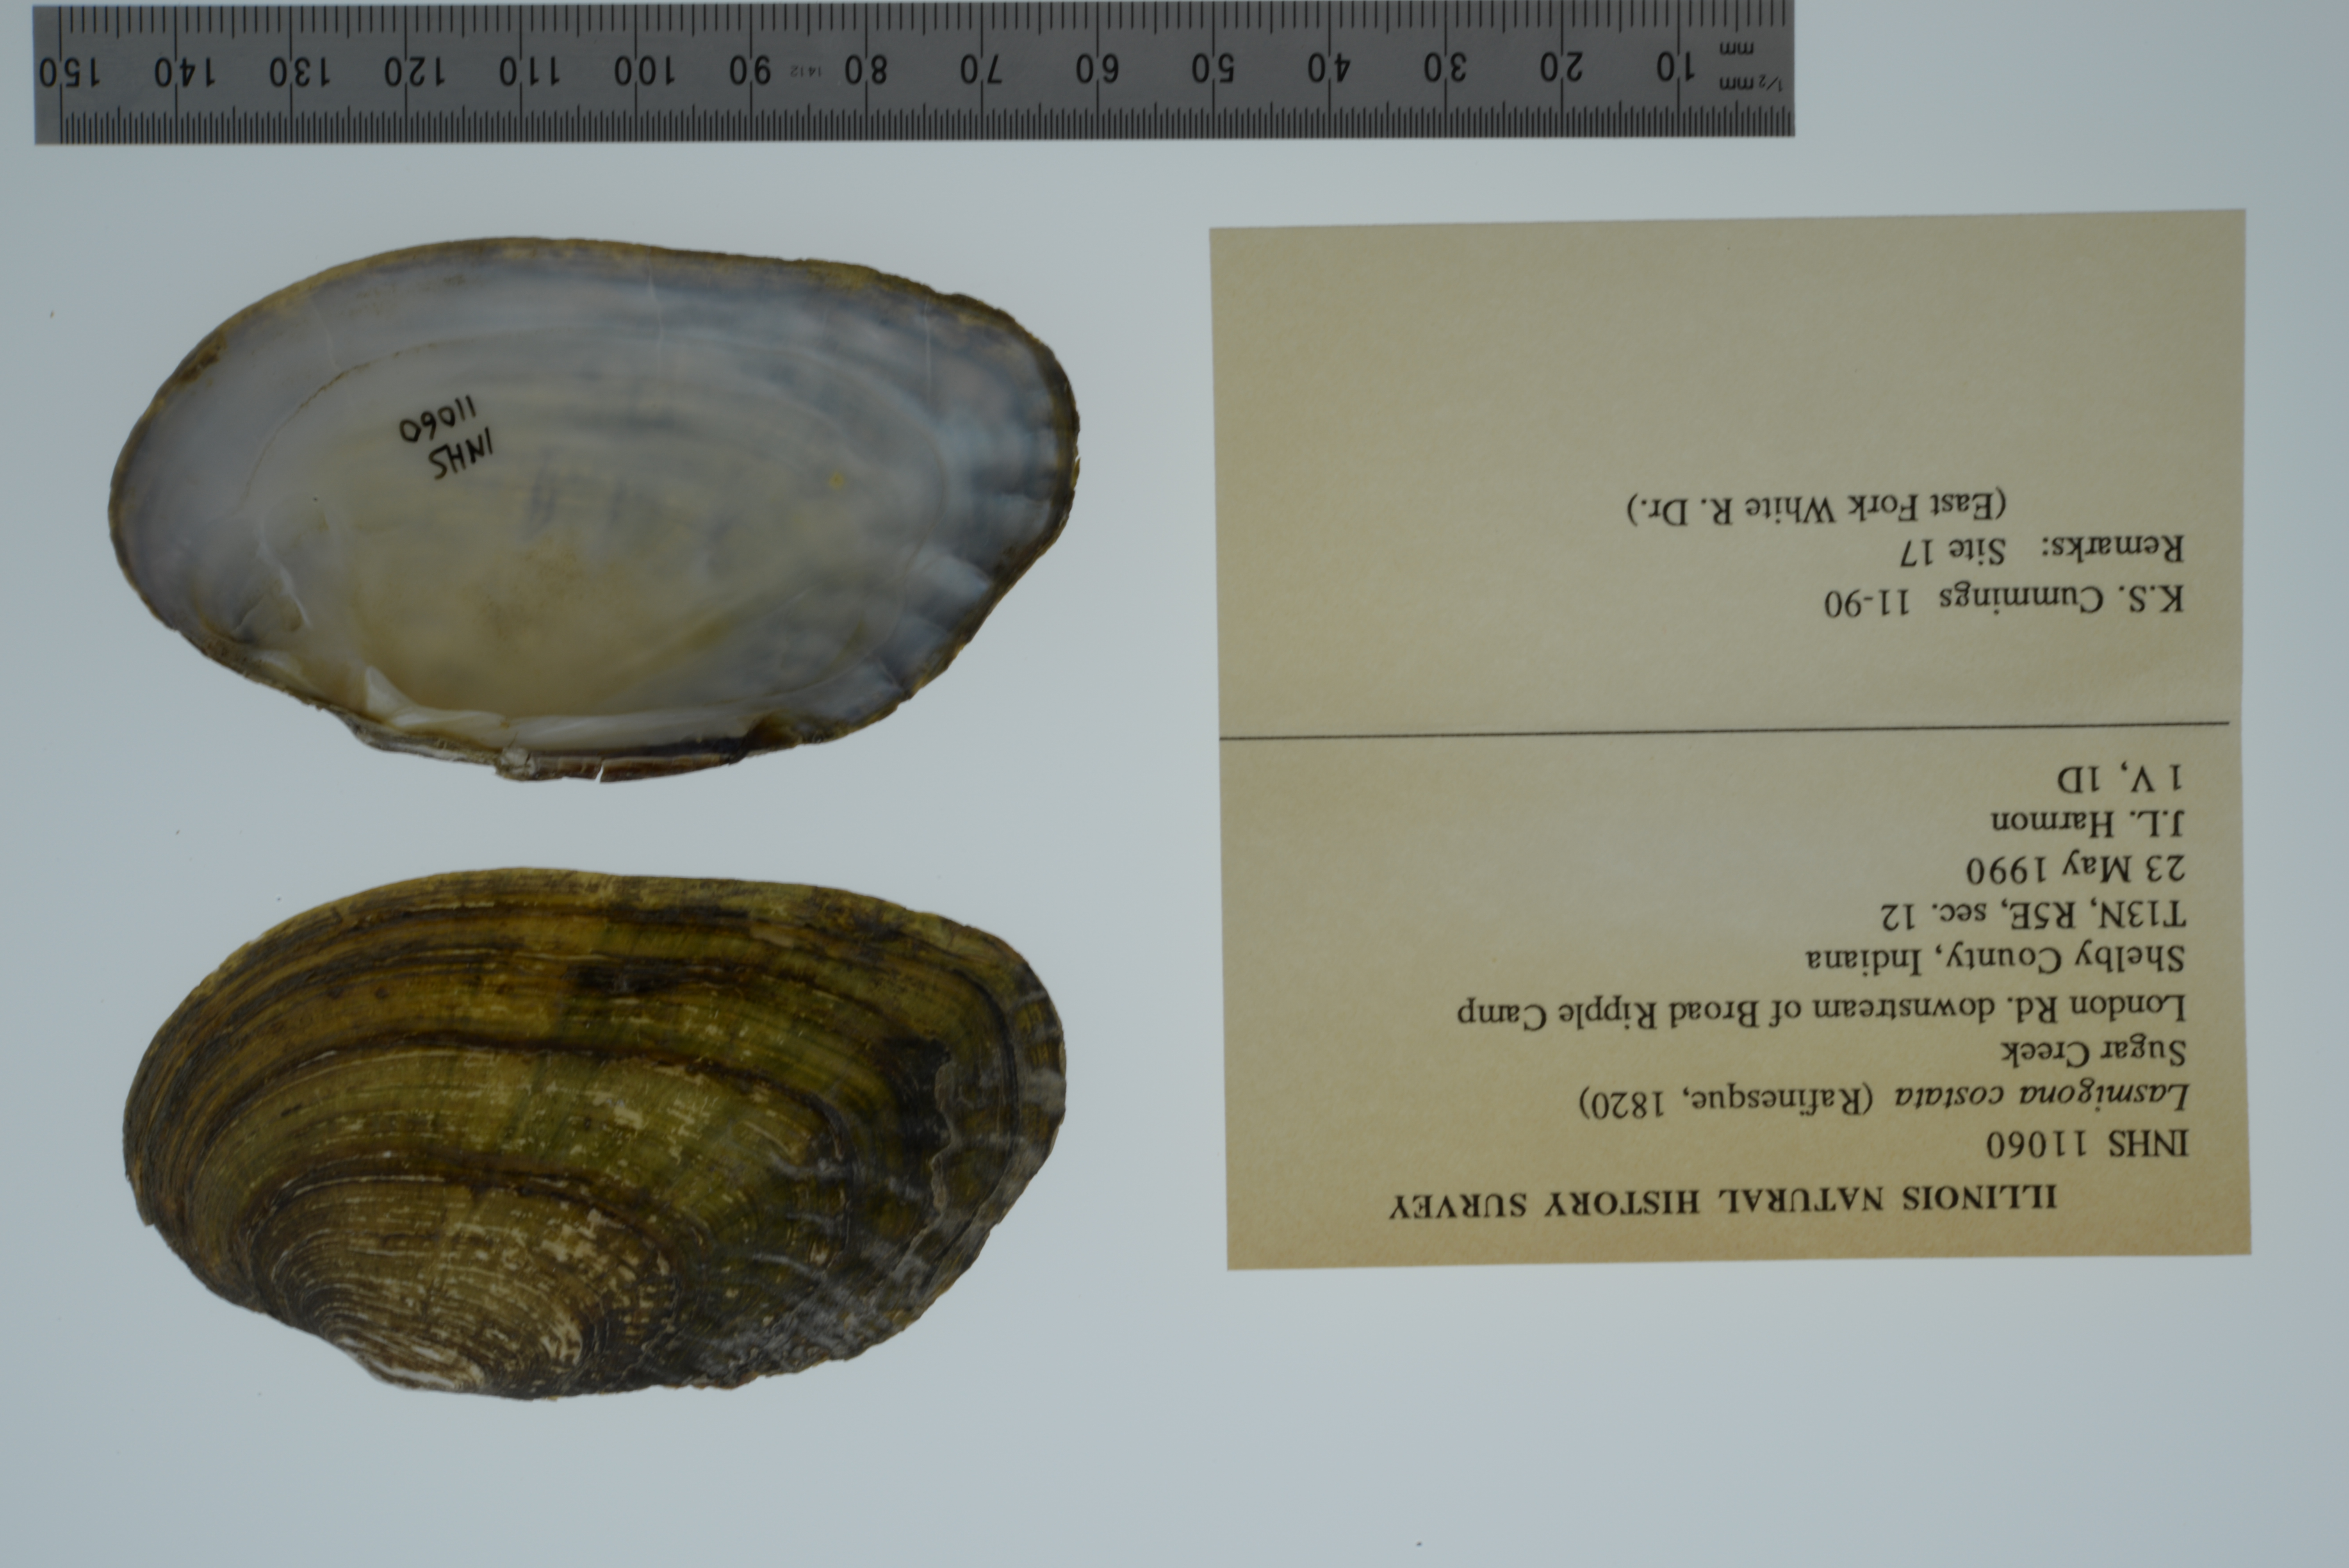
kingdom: Animalia
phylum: Mollusca
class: Bivalvia
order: Unionida
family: Unionidae
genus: Lasmigona
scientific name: Lasmigona costata
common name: Flutedshell
